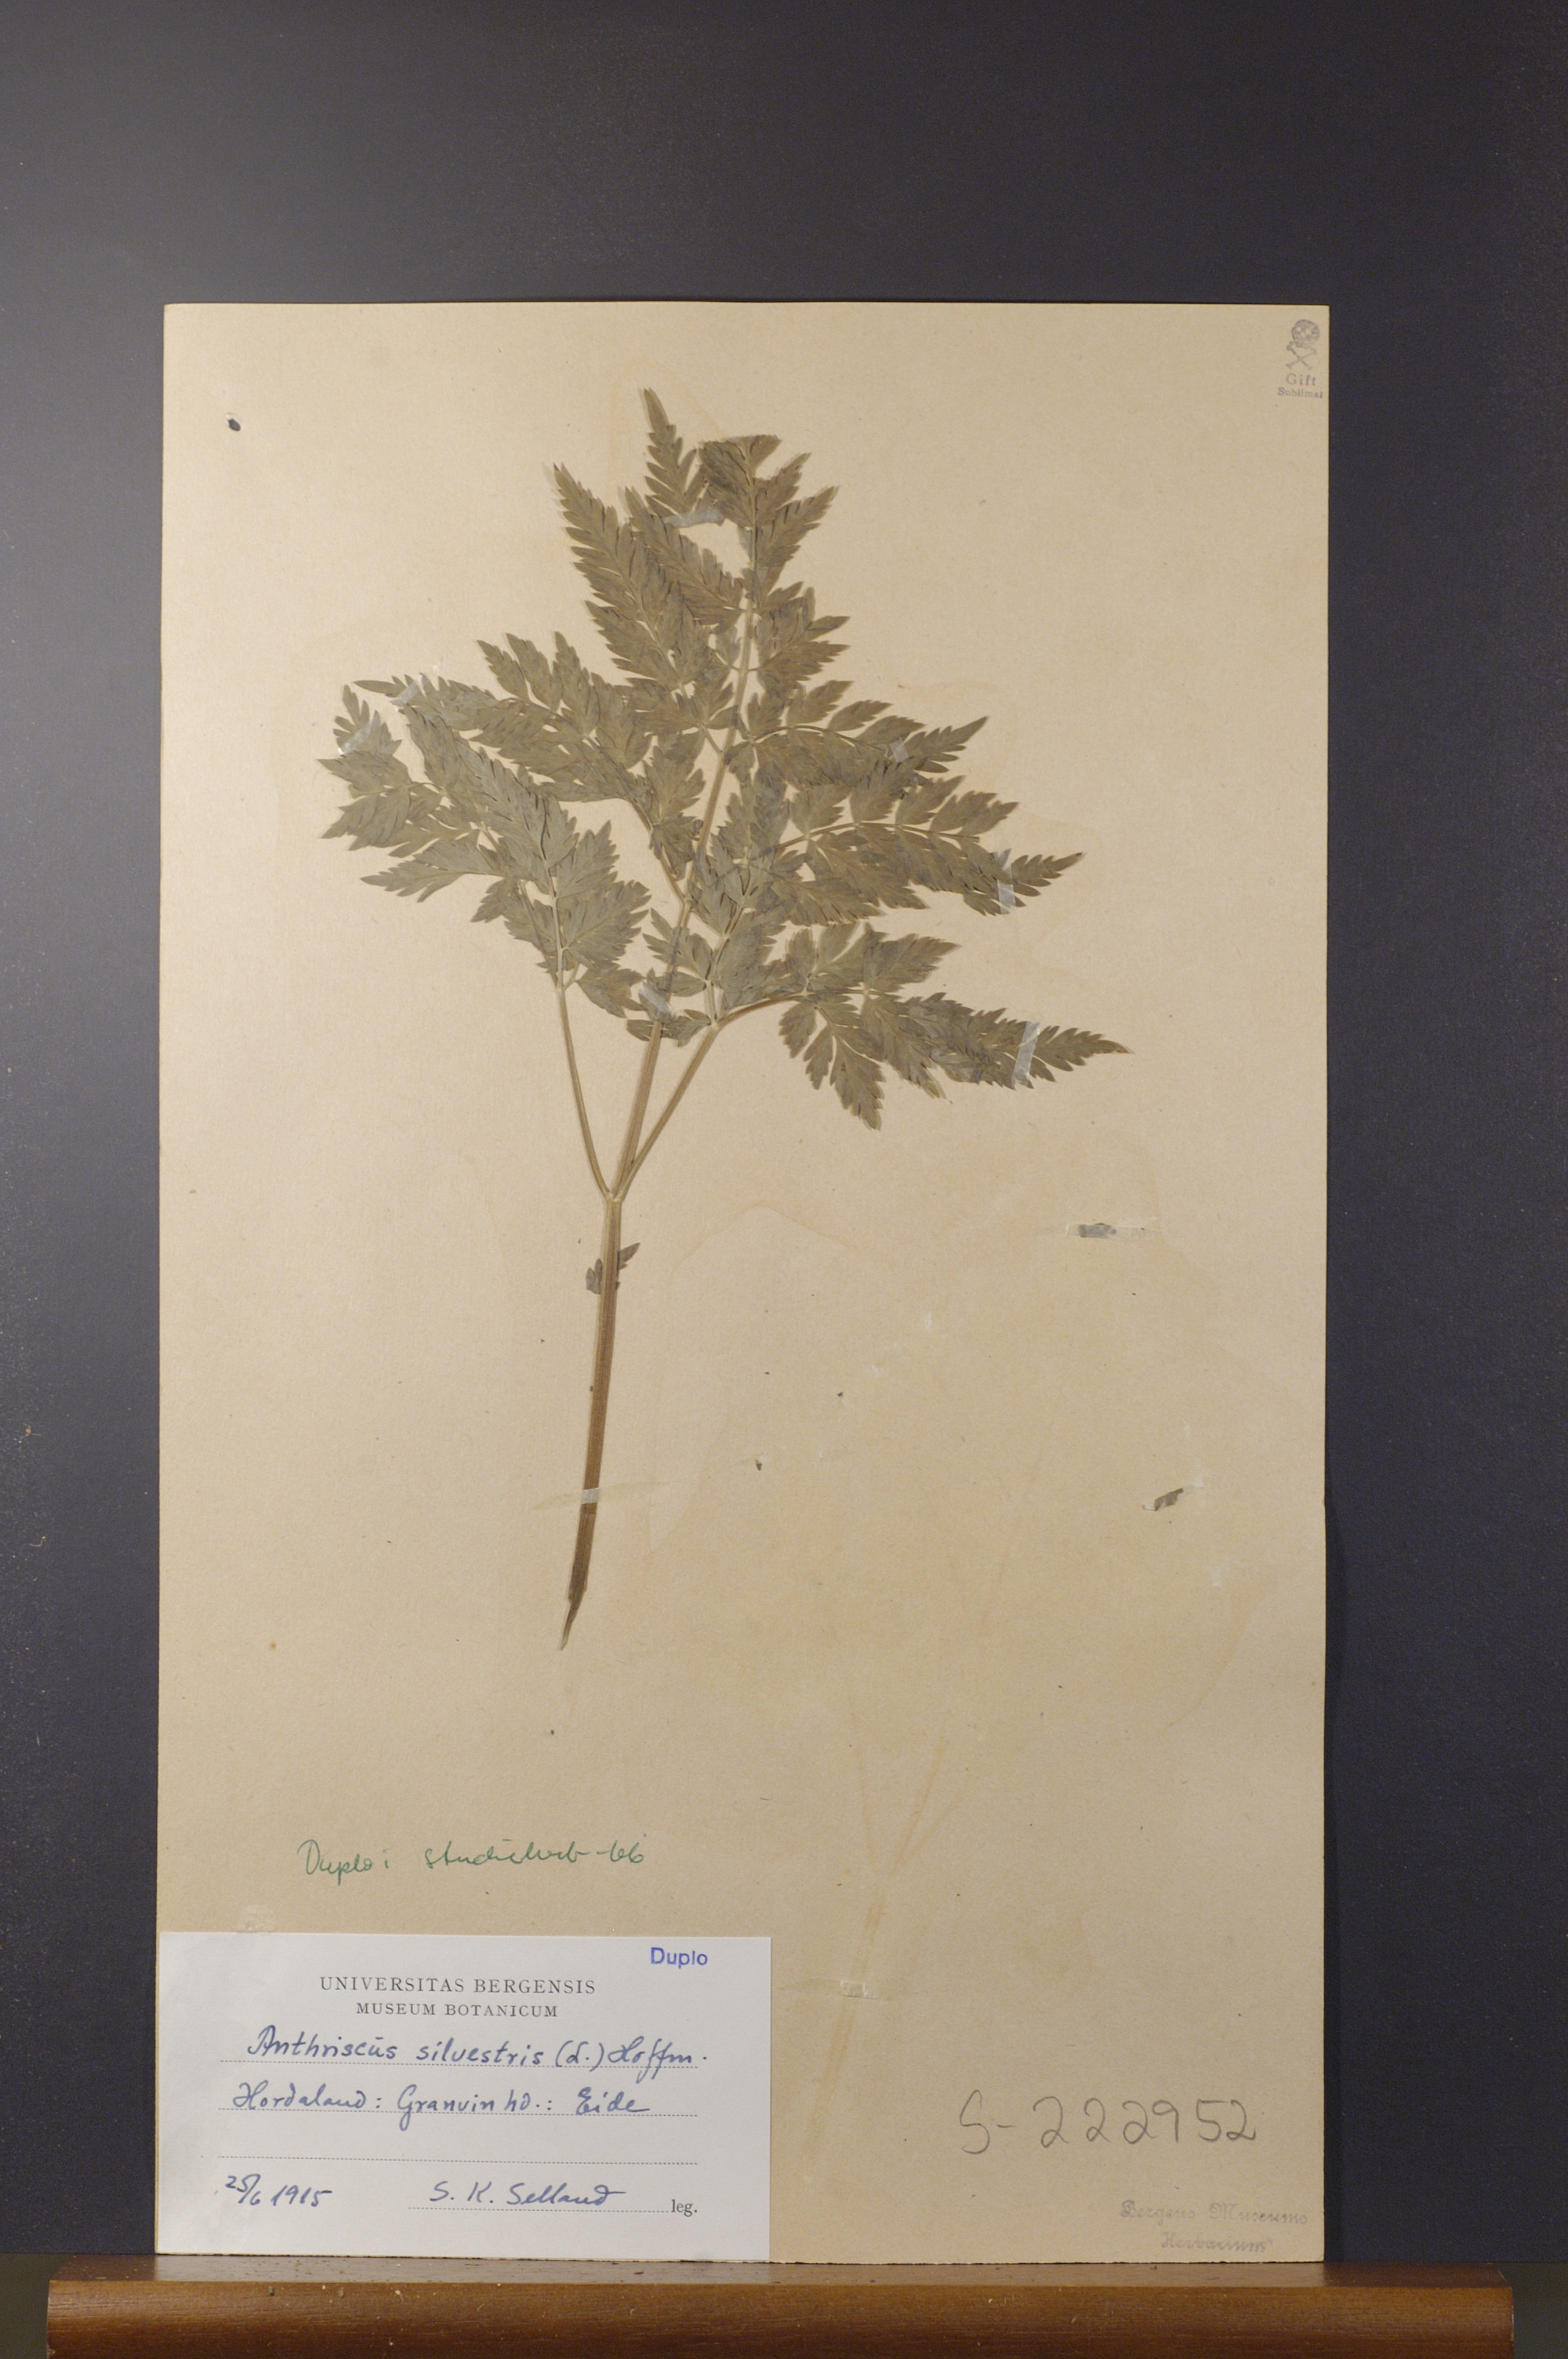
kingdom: Plantae
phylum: Tracheophyta
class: Magnoliopsida
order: Apiales
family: Apiaceae
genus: Anthriscus
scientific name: Anthriscus sylvestris
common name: Cow parsley
